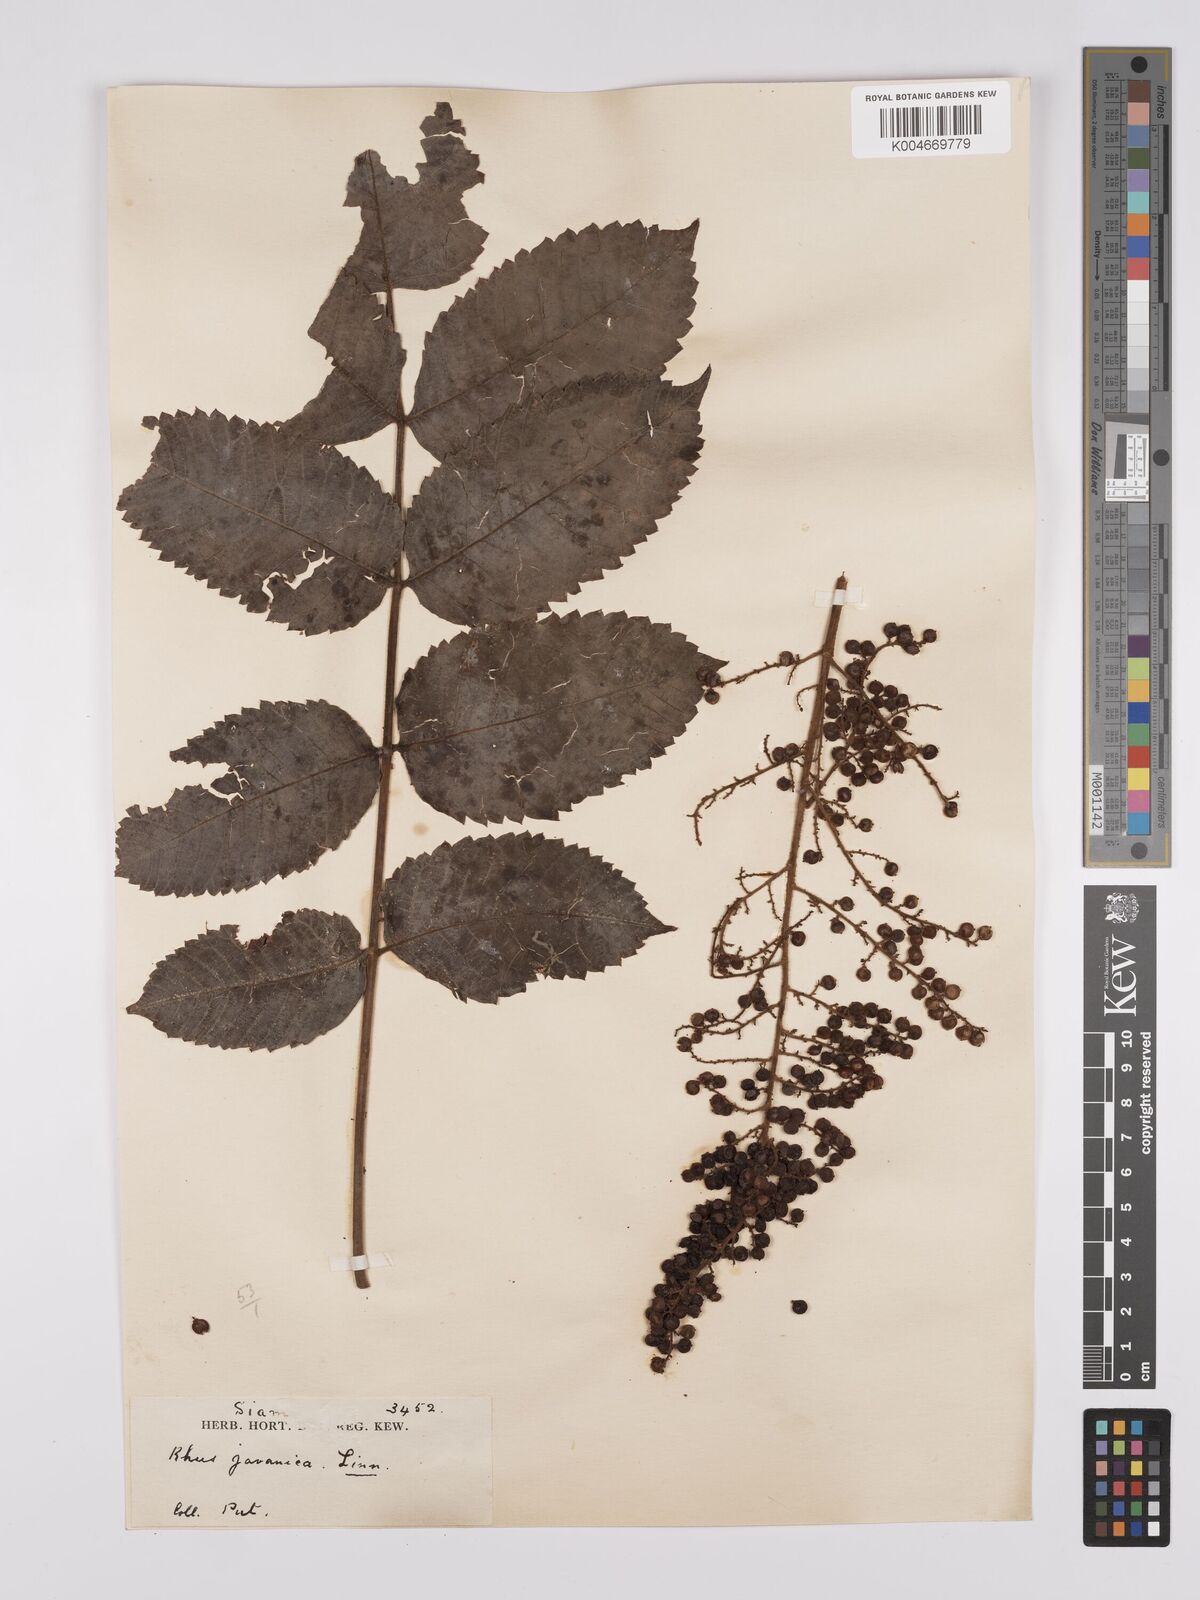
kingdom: Plantae
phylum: Tracheophyta
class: Magnoliopsida
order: Sapindales
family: Simaroubaceae
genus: Brucea
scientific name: Brucea javanica
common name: Macassar kernels
